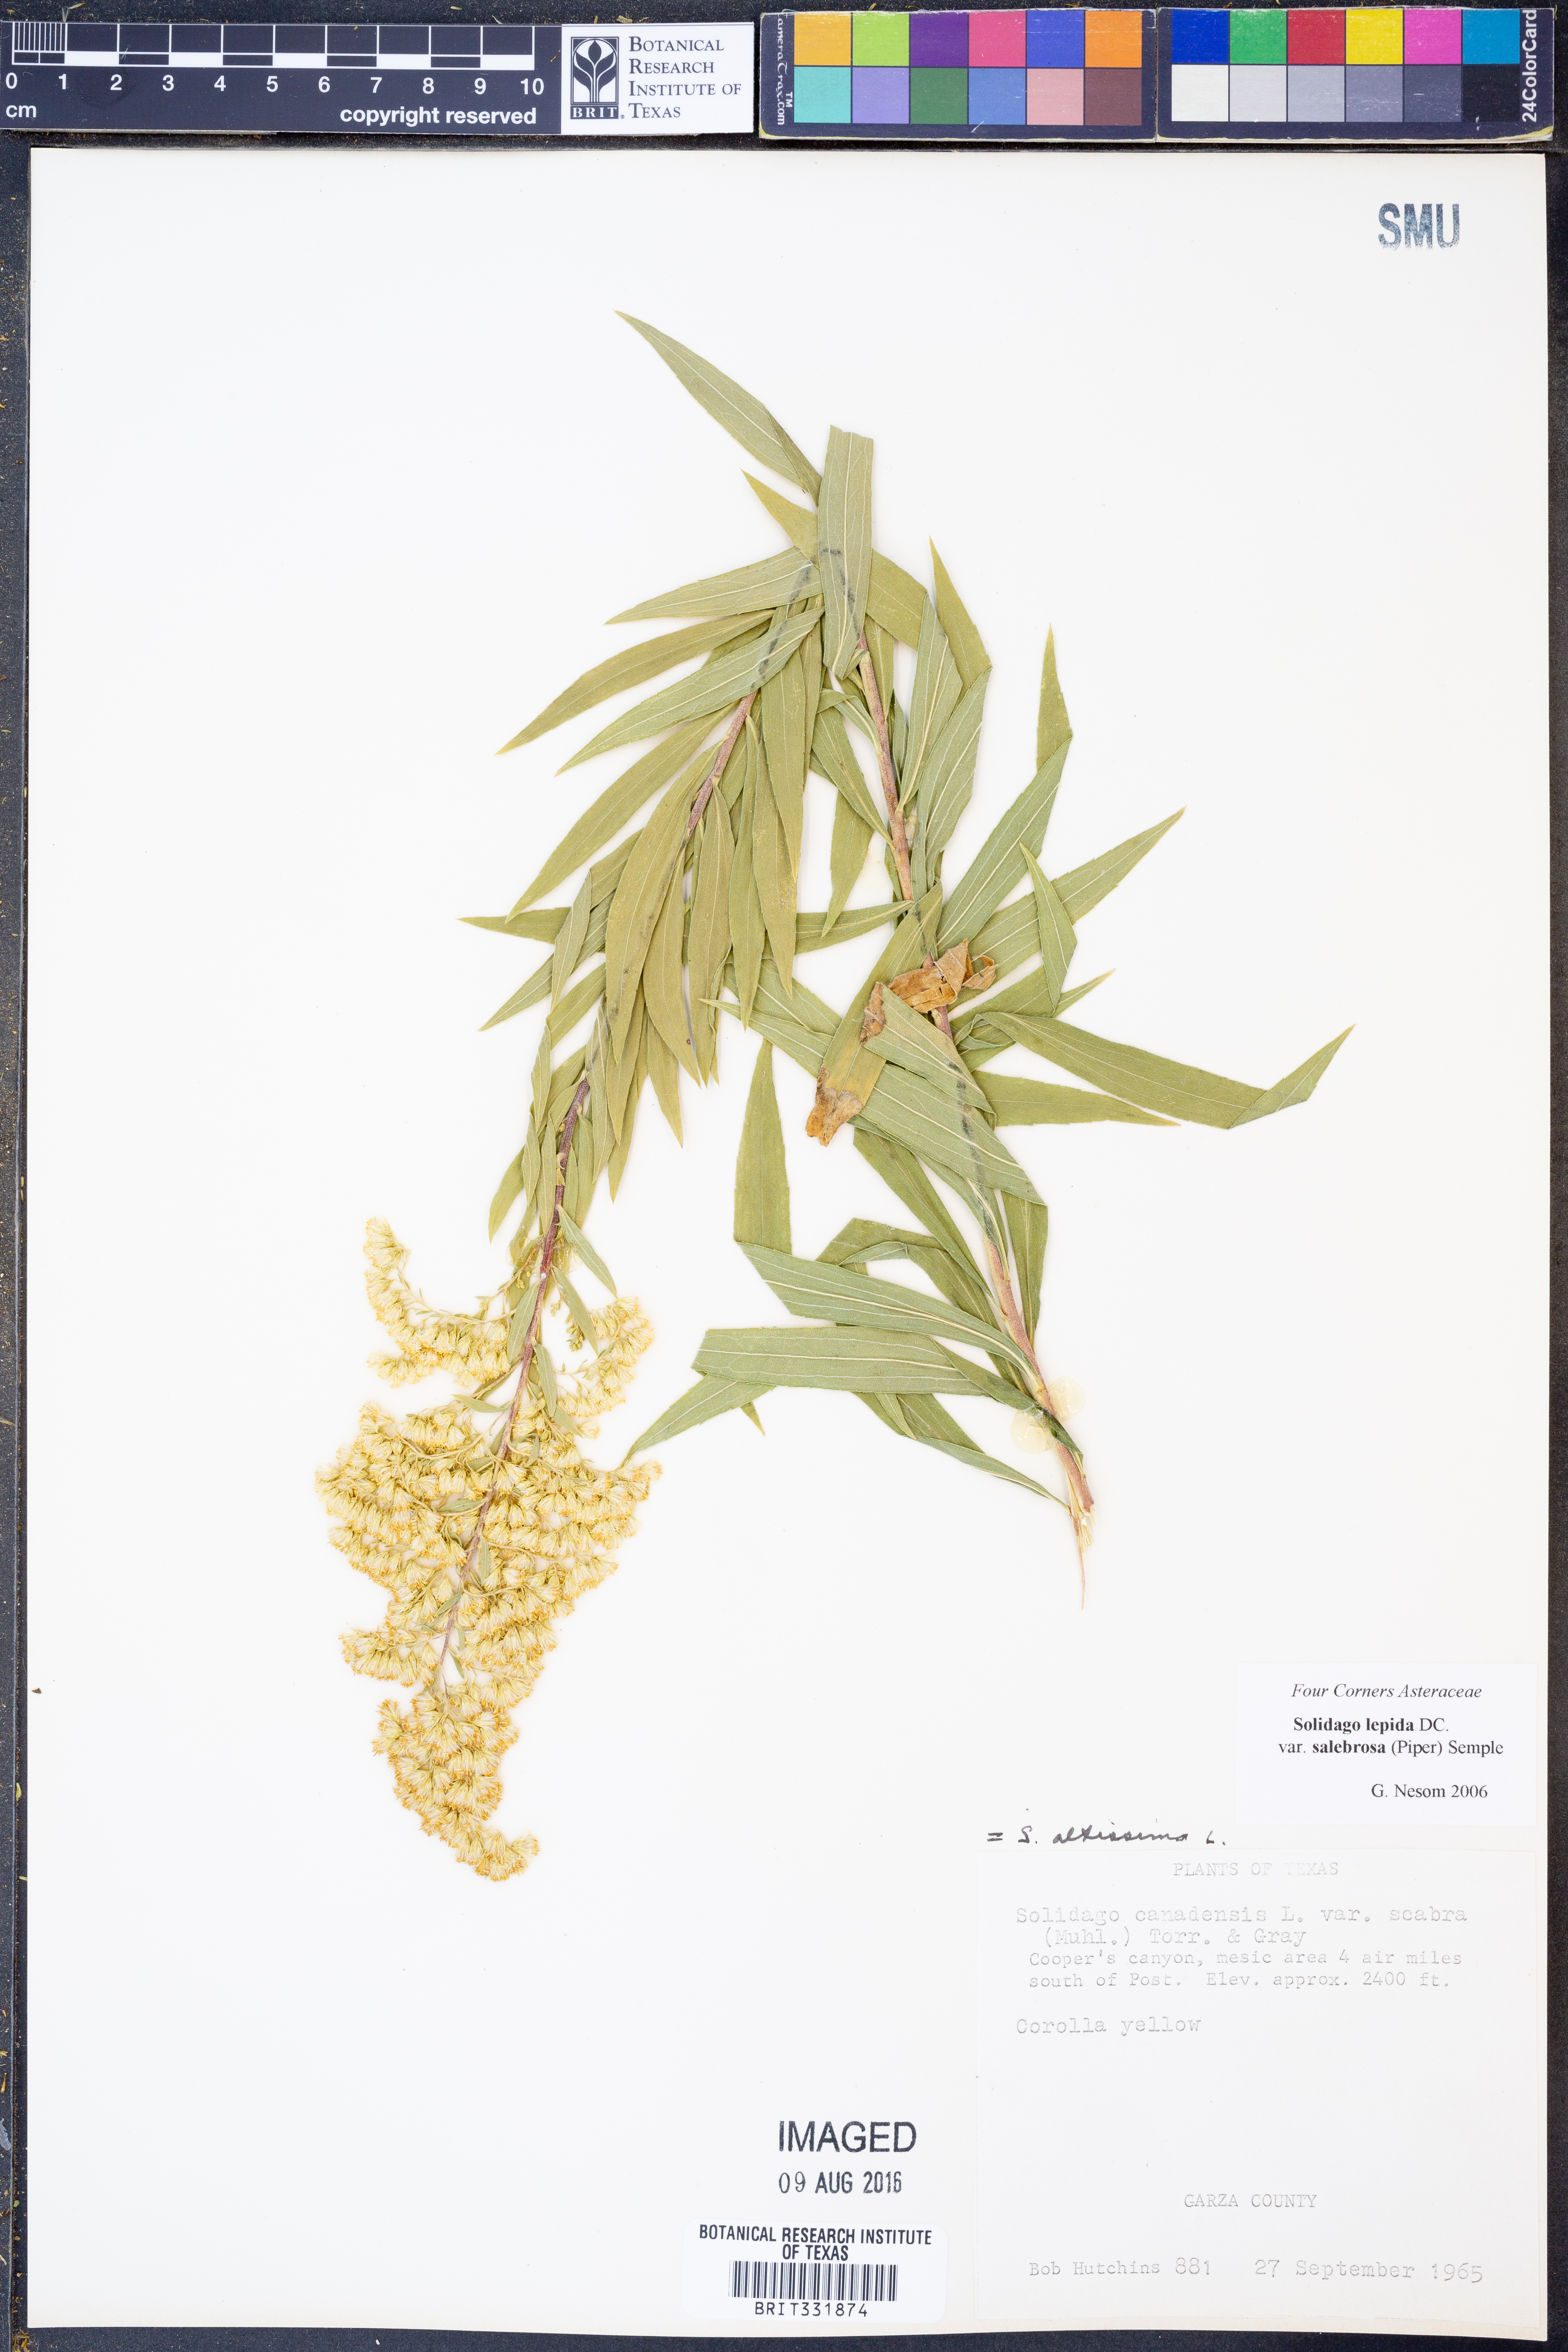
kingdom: Plantae
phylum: Tracheophyta
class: Magnoliopsida
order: Asterales
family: Asteraceae
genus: Solidago
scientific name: Solidago lepida
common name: Western canada goldenrod
